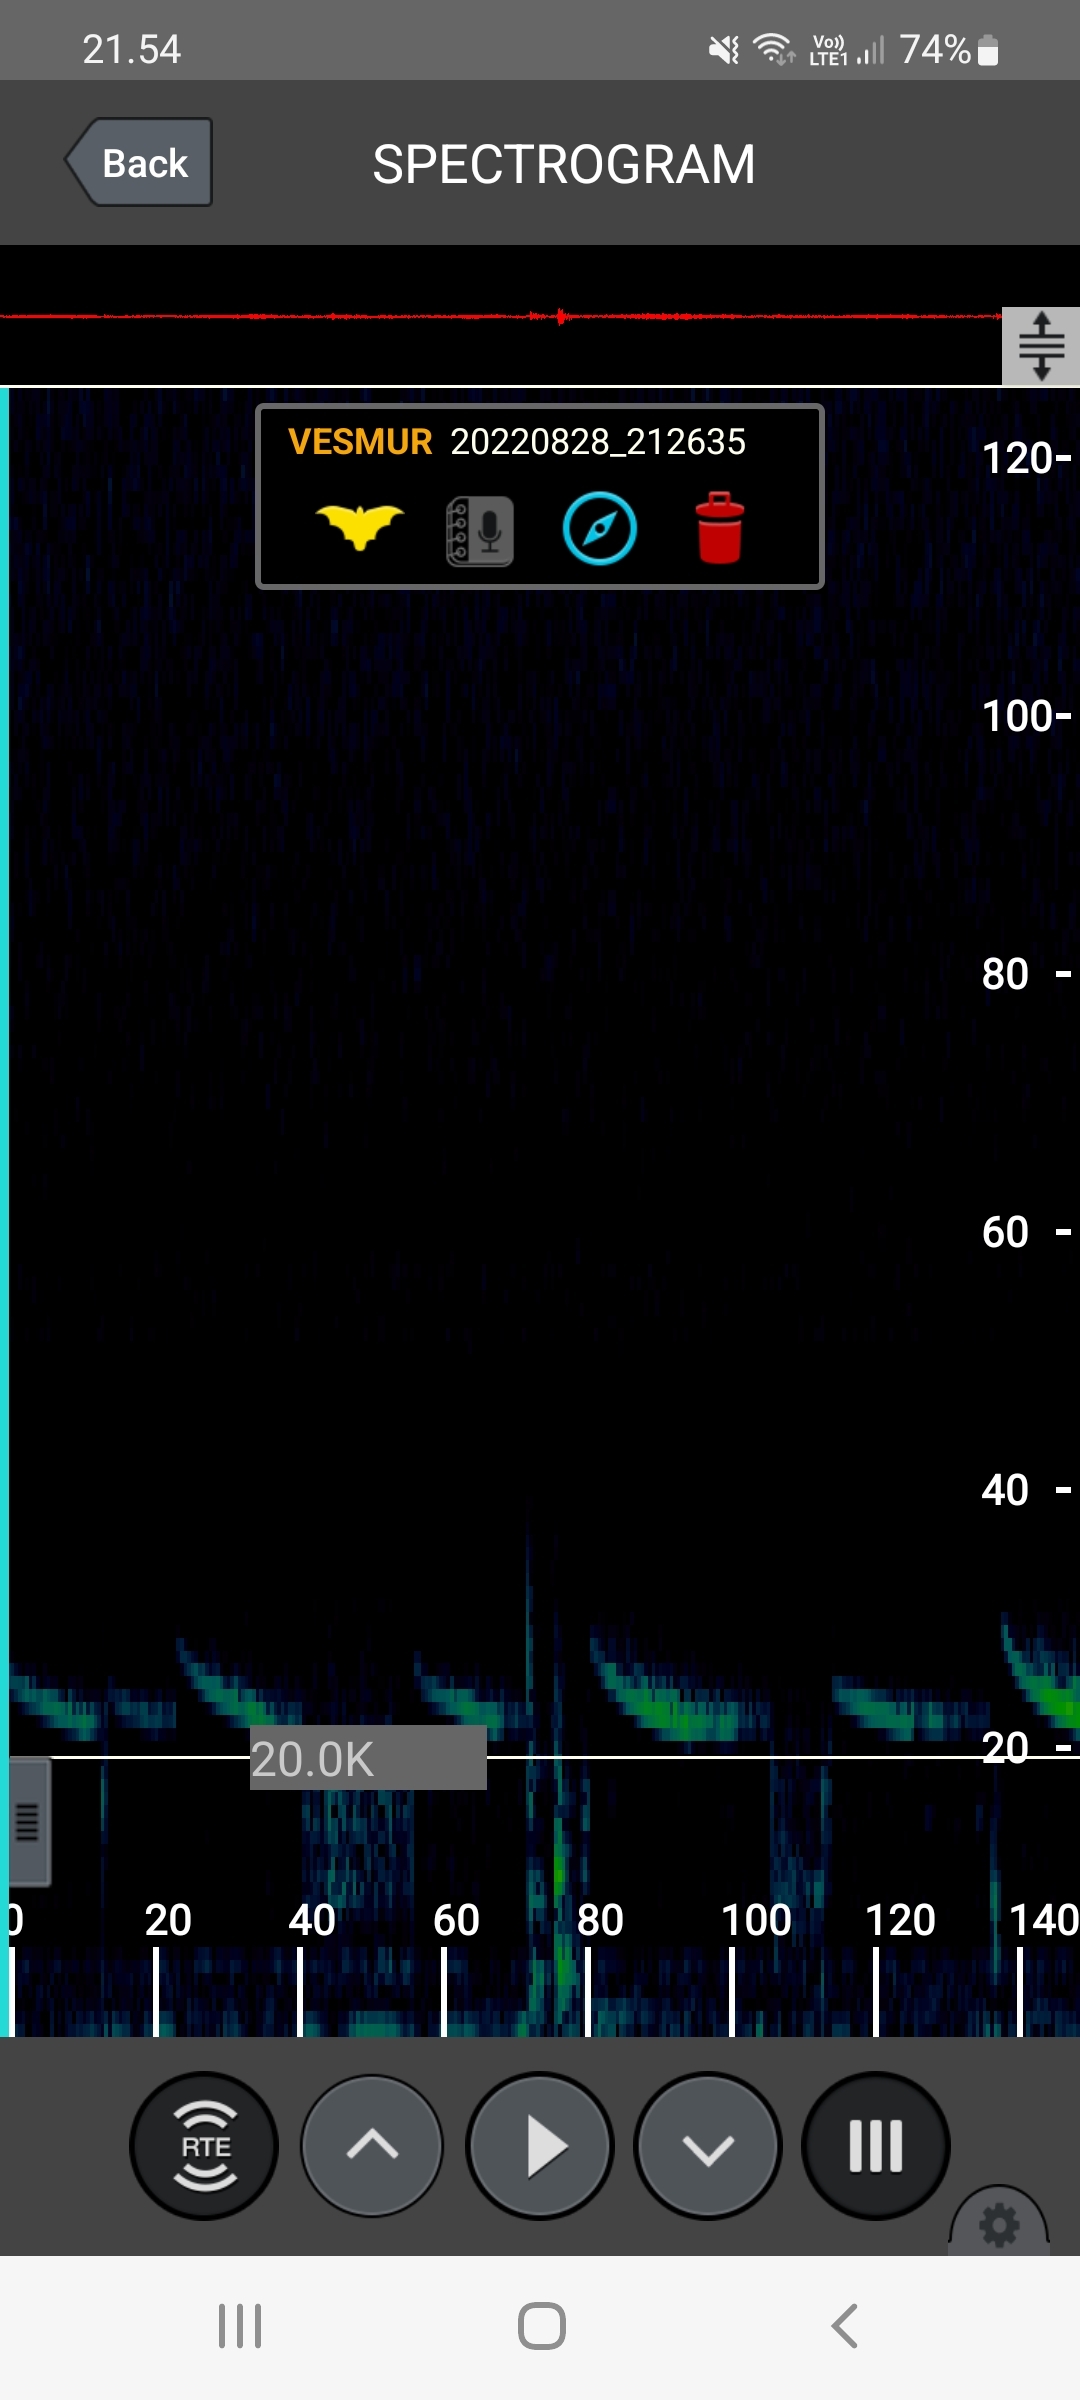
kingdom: Animalia
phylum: Chordata
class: Mammalia
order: Chiroptera
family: Vespertilionidae
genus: Vespertilio
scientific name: Vespertilio murinus
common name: Skimmelflagermus
